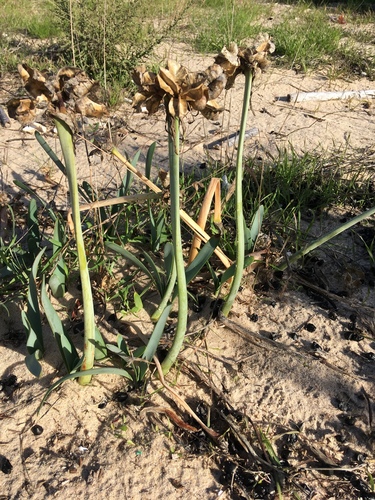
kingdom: Plantae
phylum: Tracheophyta
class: Liliopsida
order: Asparagales
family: Amaryllidaceae
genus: Pancratium
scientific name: Pancratium maritimum
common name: Sea-daffodil
